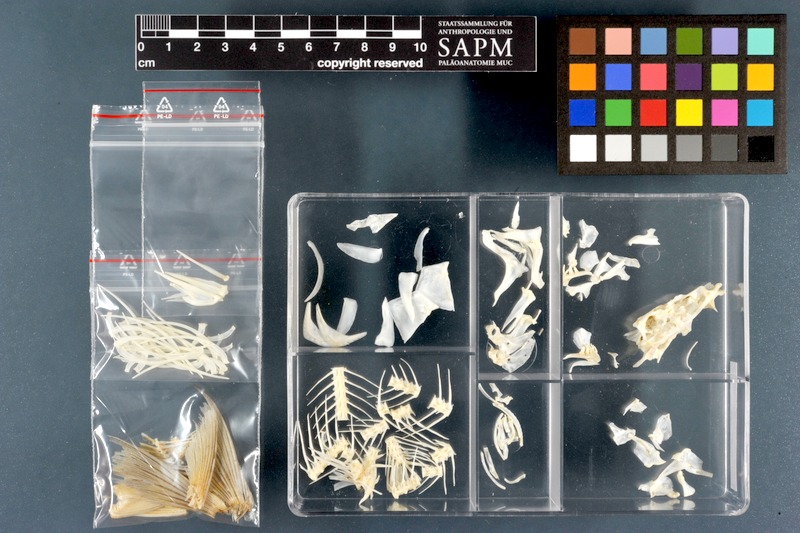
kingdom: Animalia
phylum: Chordata
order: Cypriniformes
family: Cyprinidae
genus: Acanthobrama
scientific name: Acanthobrama marmid
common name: Mesopotamian bream
